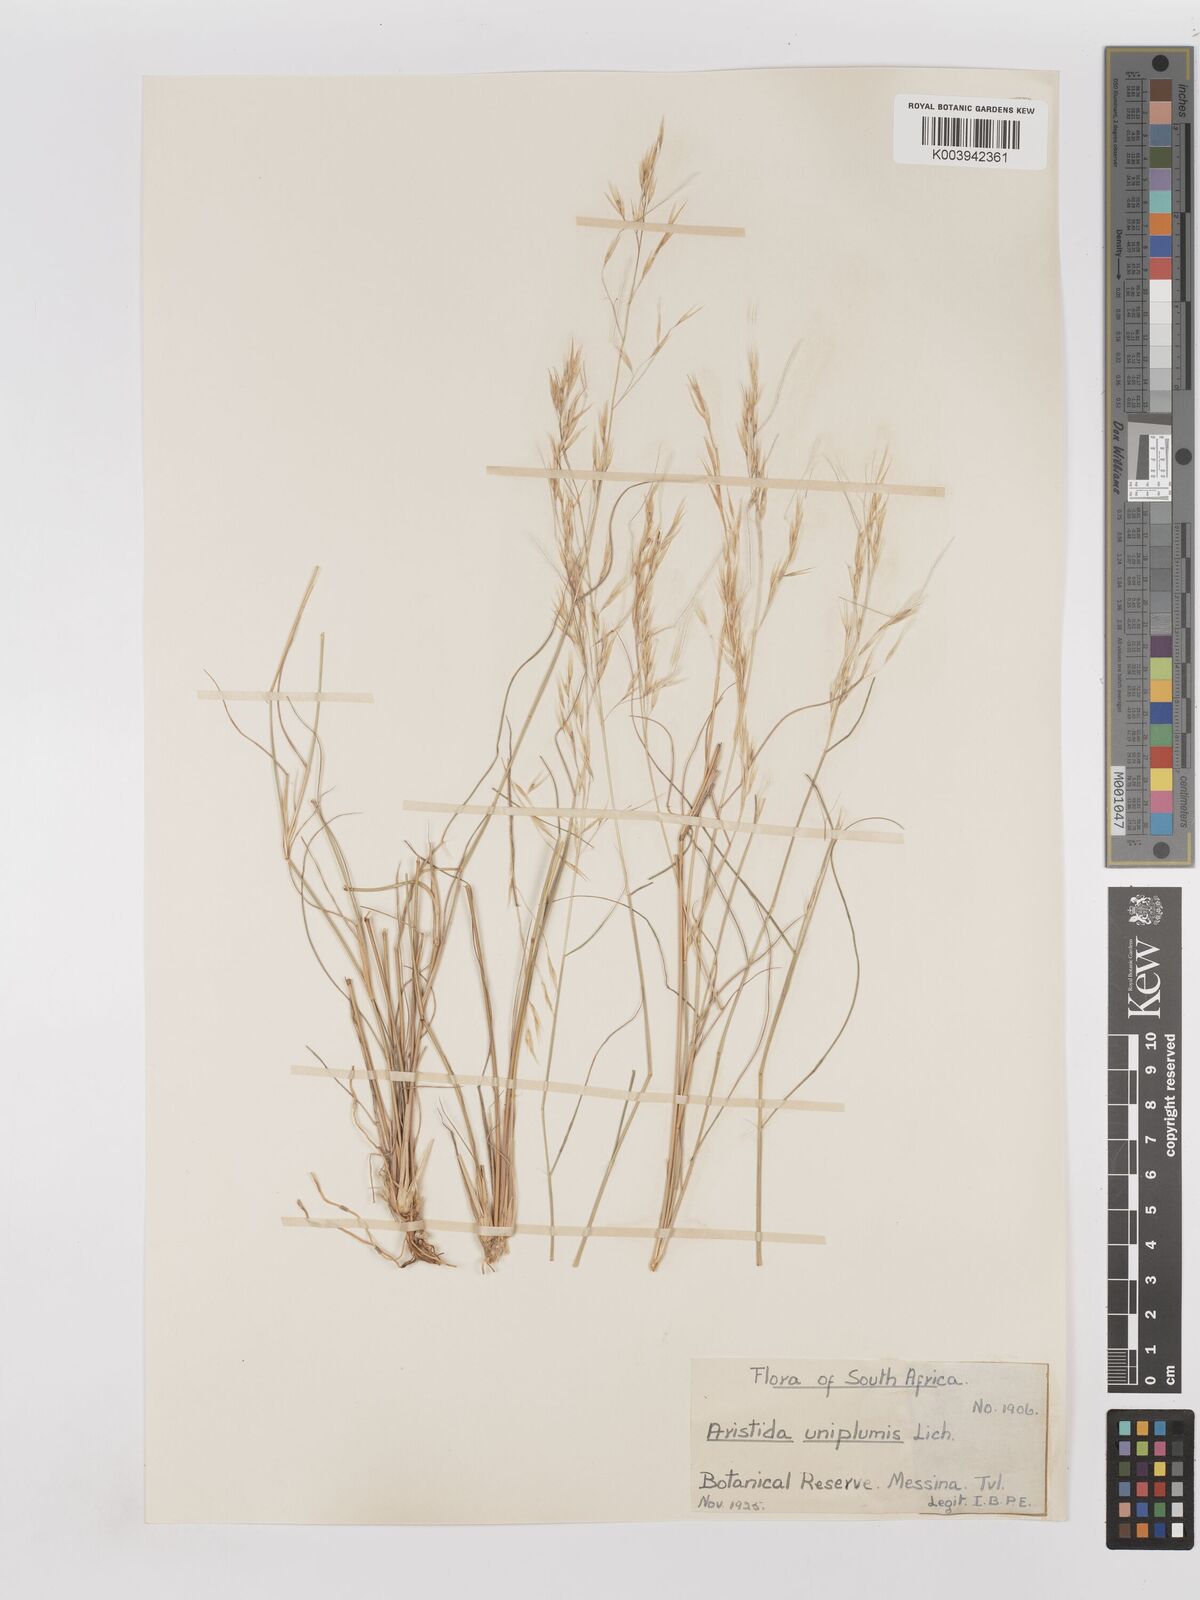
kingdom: Plantae
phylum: Tracheophyta
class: Liliopsida
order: Poales
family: Poaceae
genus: Stipagrostis
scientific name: Stipagrostis uniplumis
